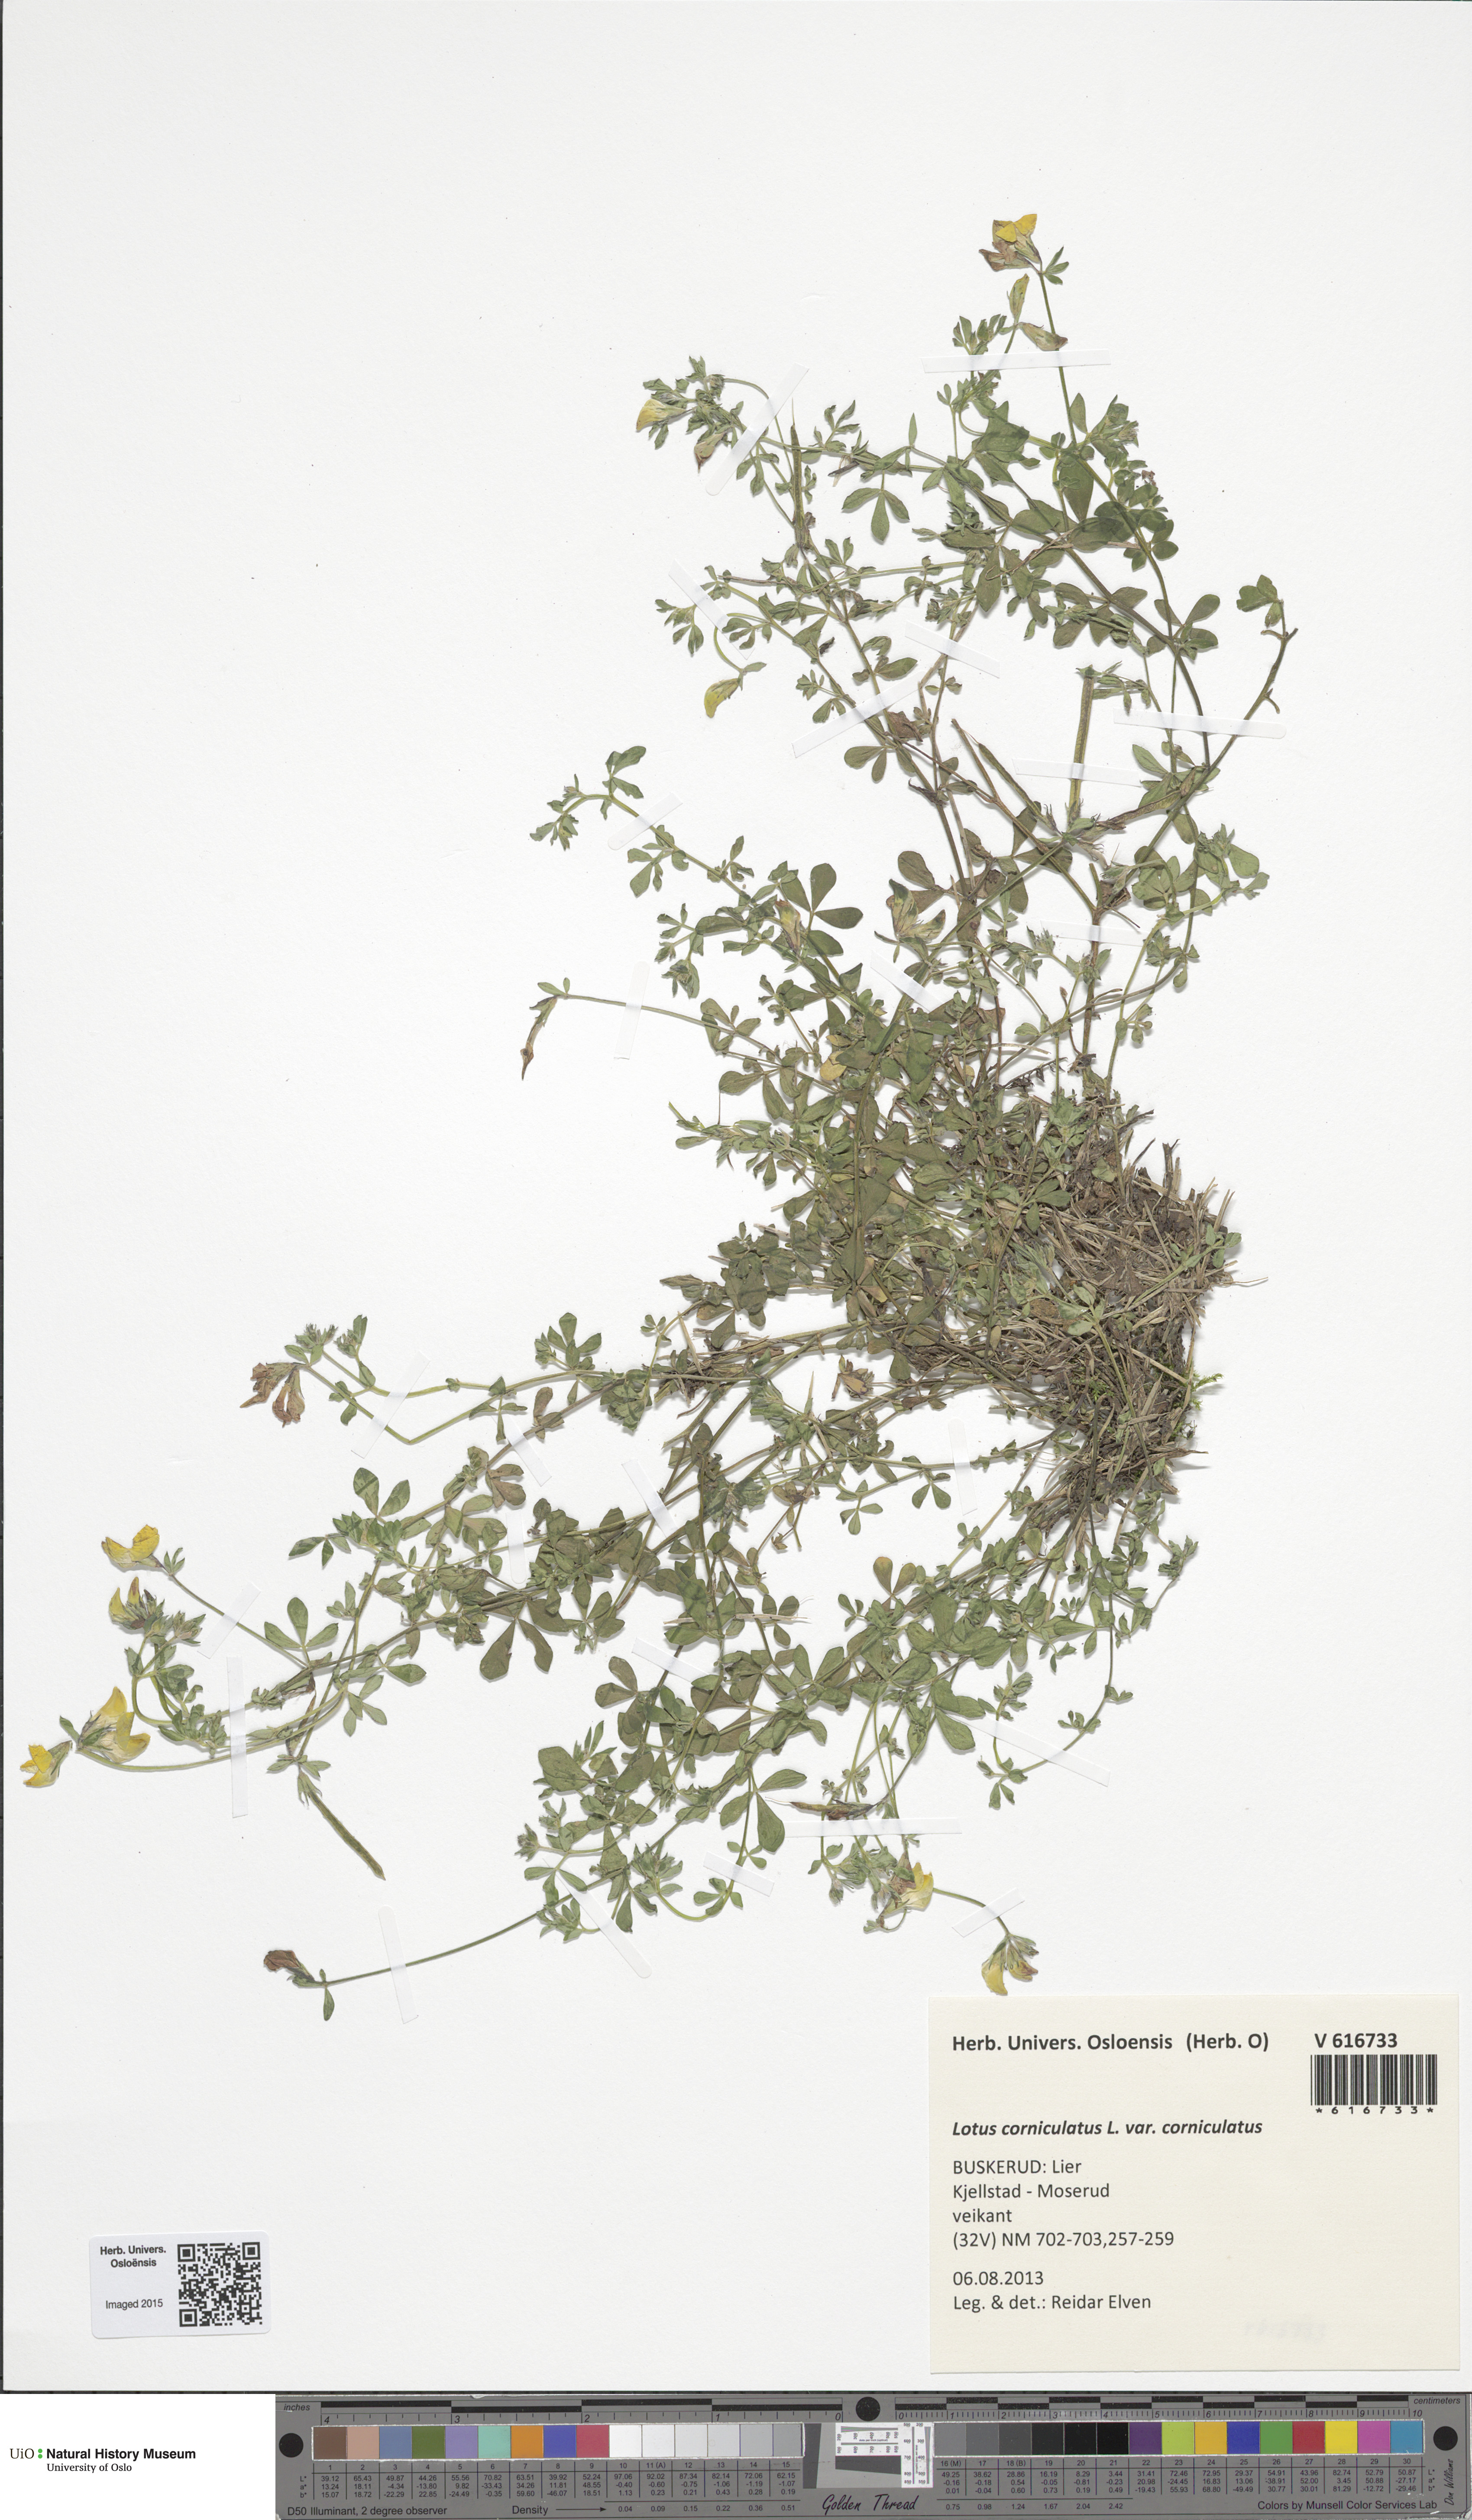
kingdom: Plantae
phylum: Tracheophyta
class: Magnoliopsida
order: Fabales
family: Fabaceae
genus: Lotus
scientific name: Lotus corniculatus
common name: Common bird's-foot-trefoil
